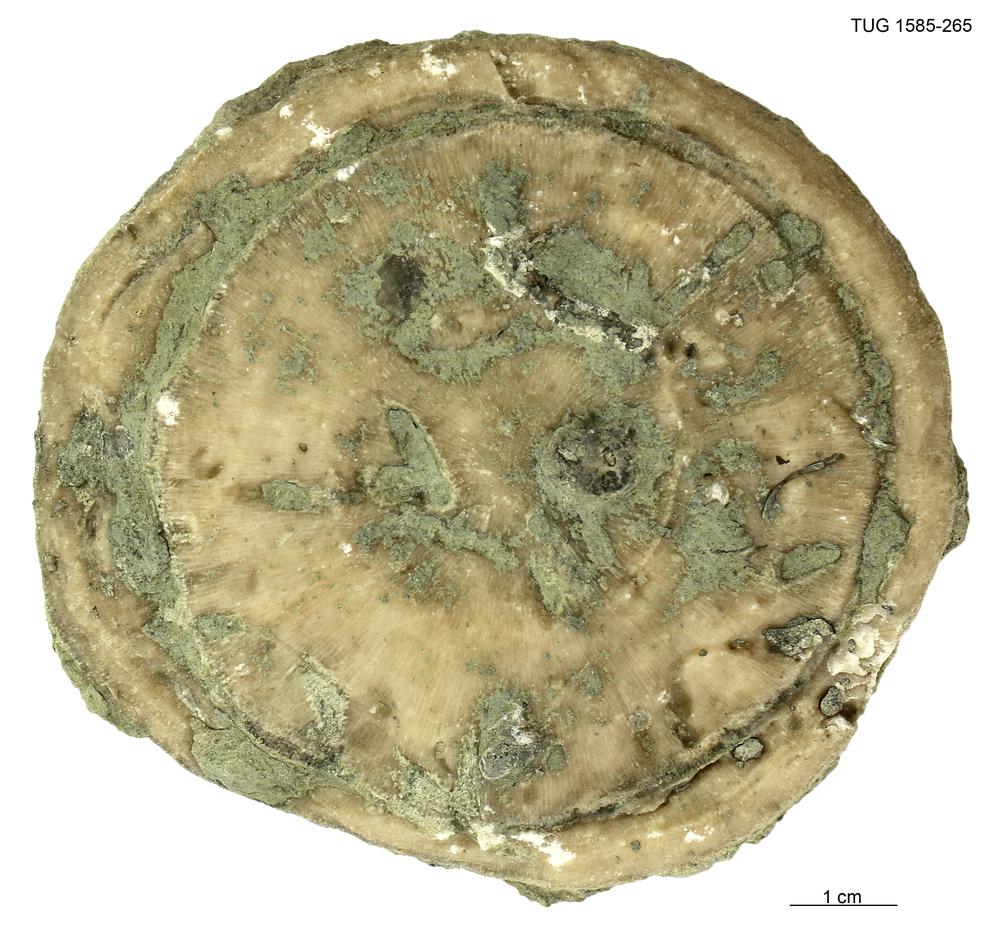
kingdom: Animalia
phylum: Bryozoa
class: Stenolaemata
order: Trepostomatida
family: Diplotrypidae
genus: Diplotrypa
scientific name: Diplotrypa
